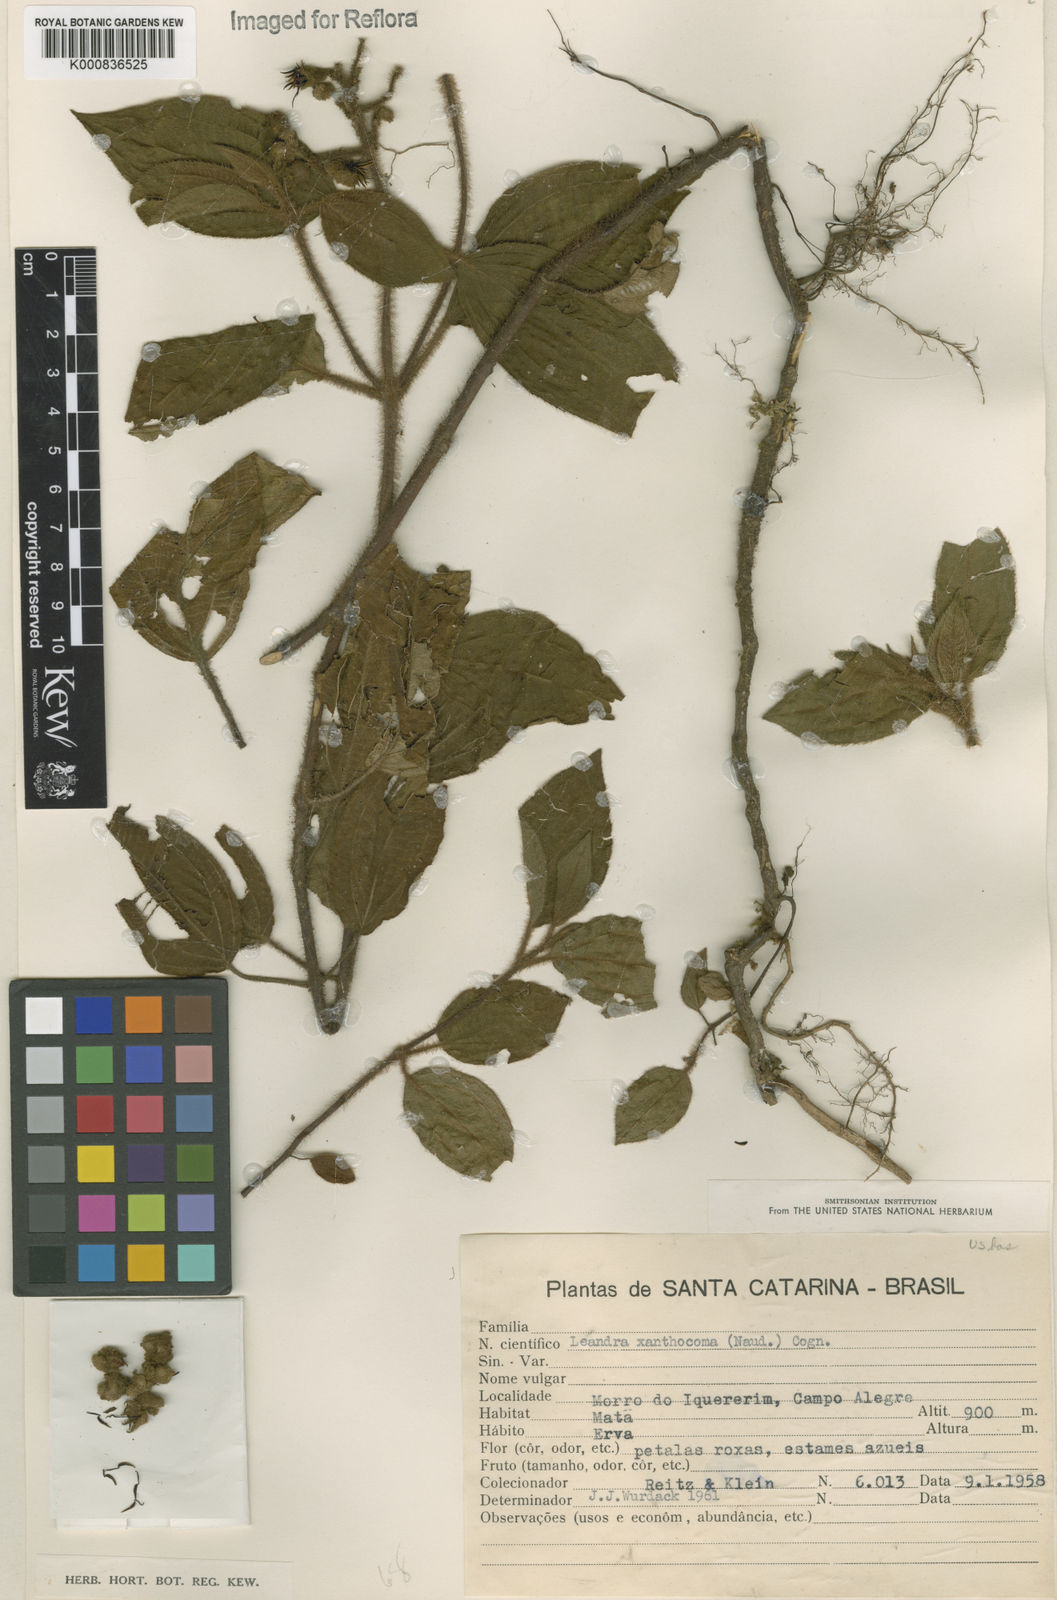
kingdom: Plantae
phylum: Tracheophyta
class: Magnoliopsida
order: Myrtales
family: Melastomataceae
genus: Miconia
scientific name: Miconia xanthocoma
